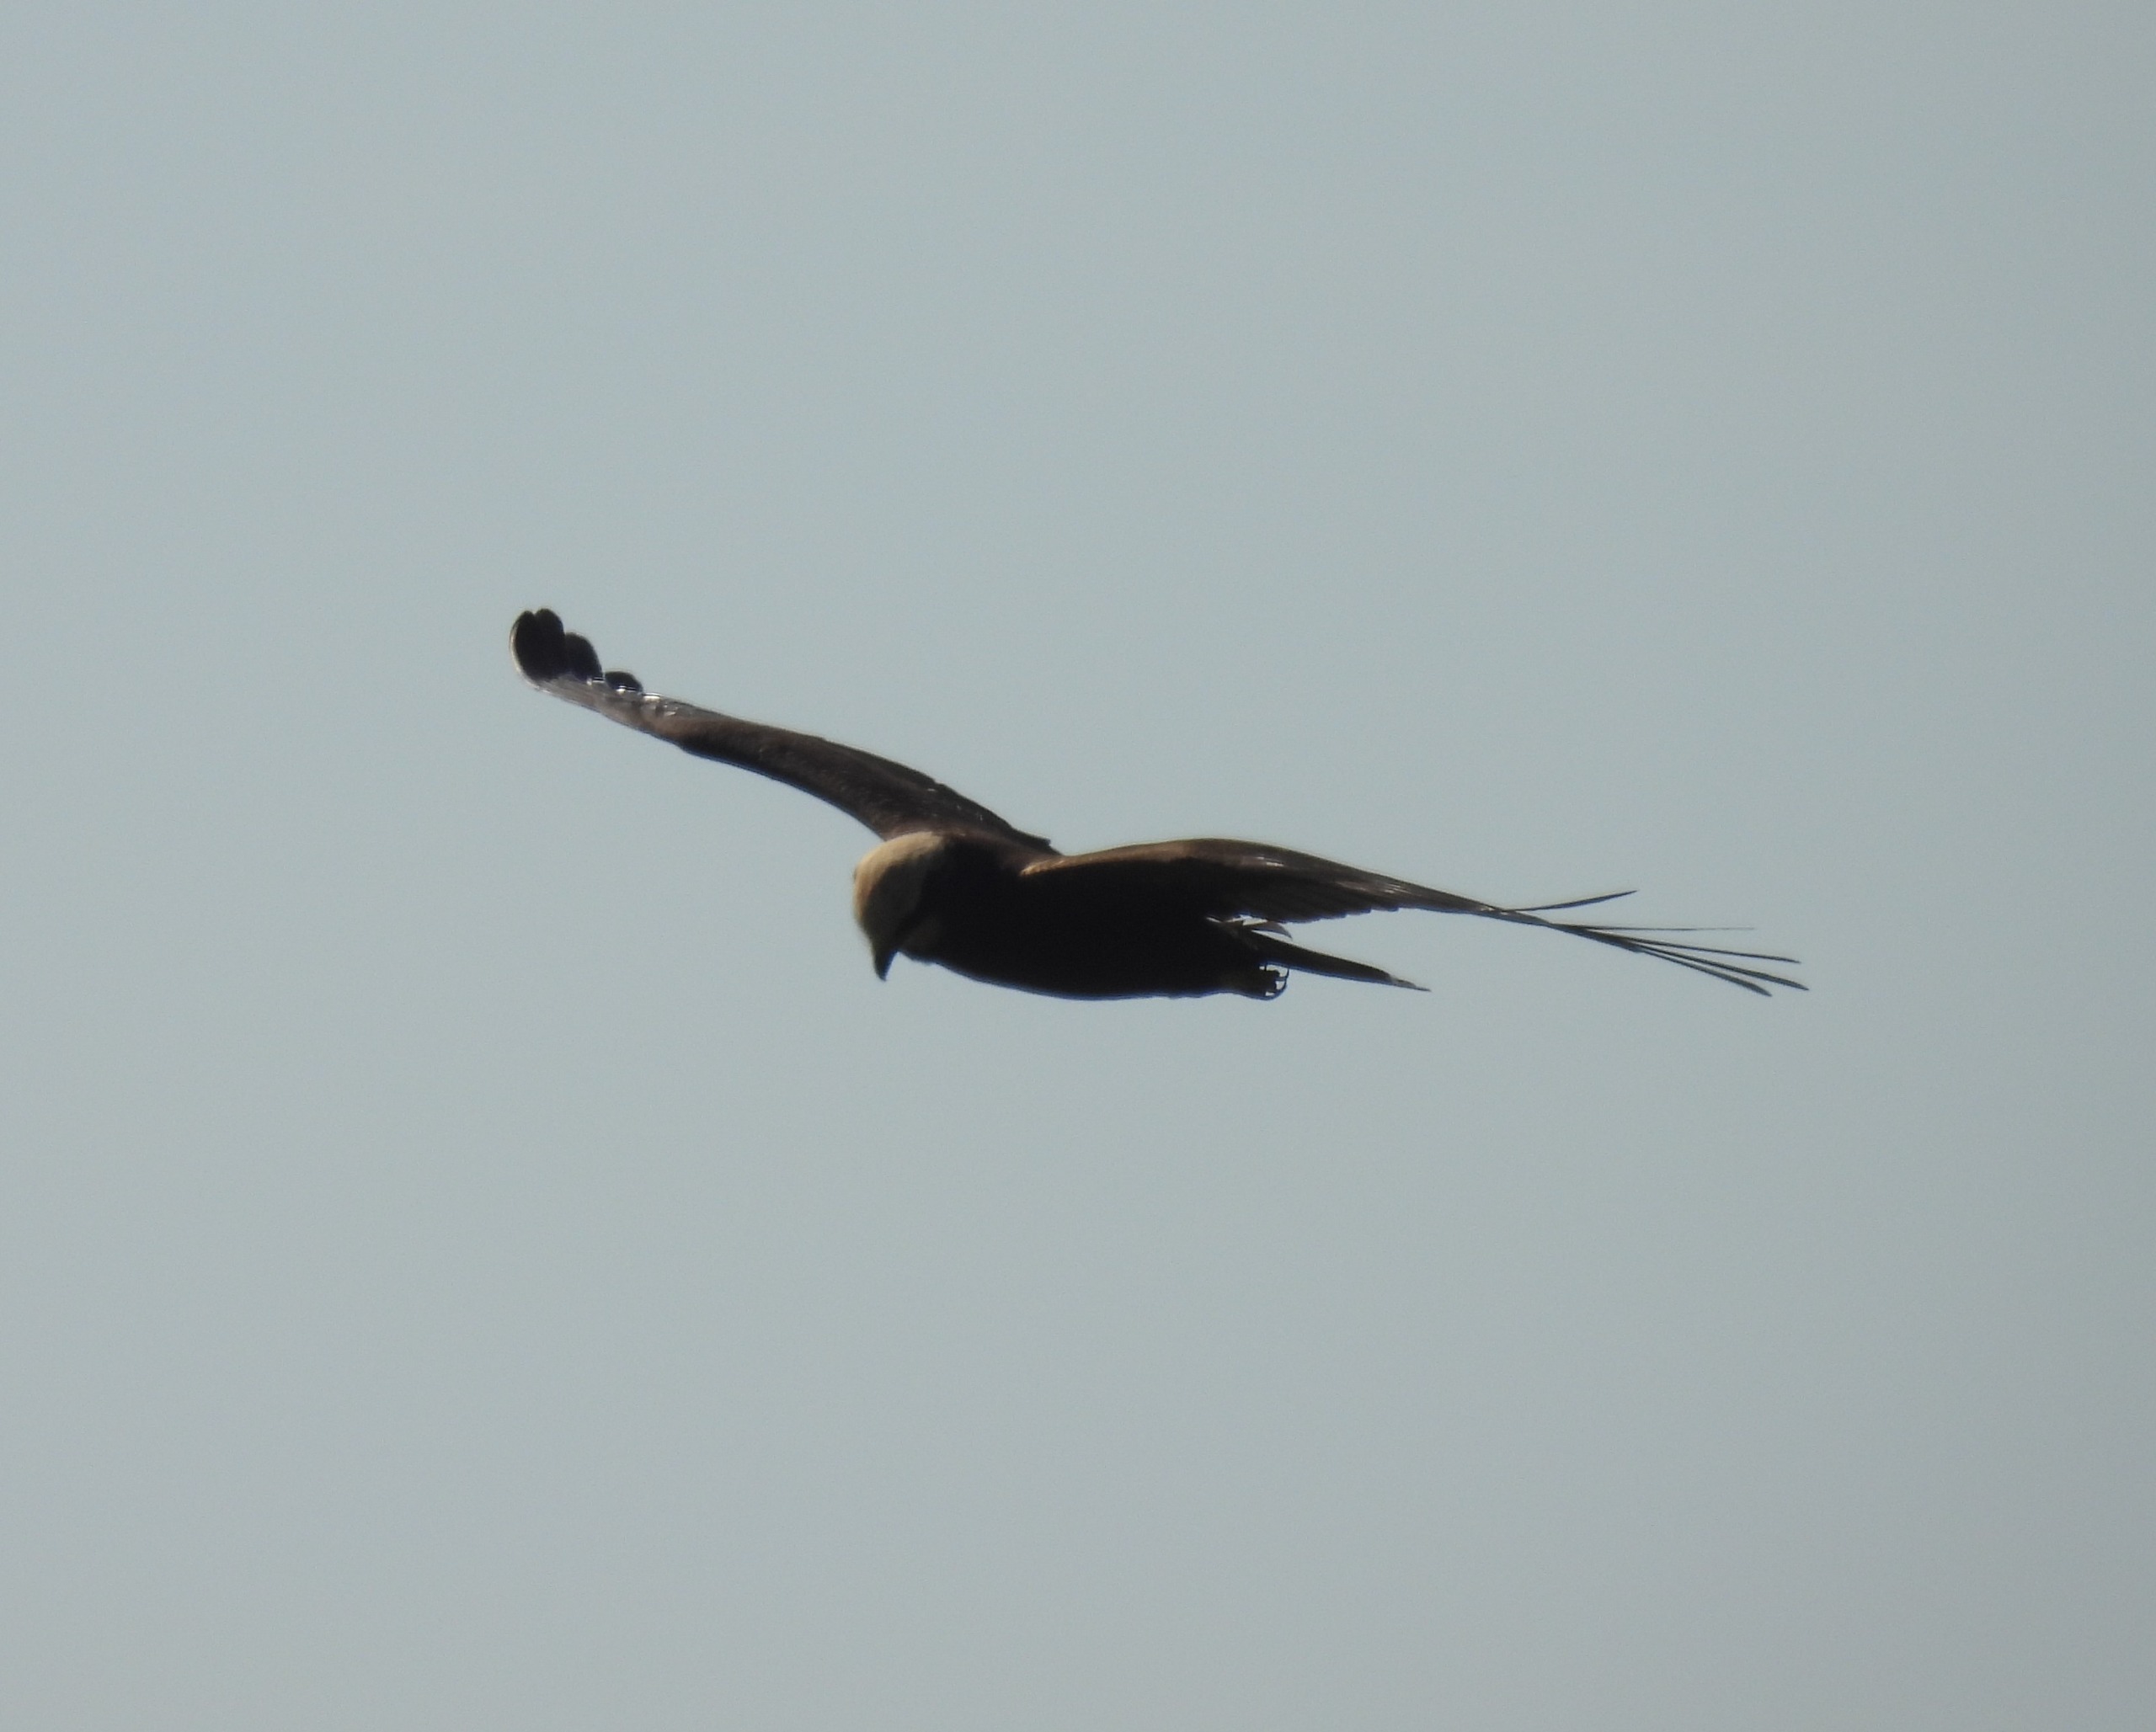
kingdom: Animalia
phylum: Chordata
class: Aves
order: Accipitriformes
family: Accipitridae
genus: Circus
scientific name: Circus aeruginosus
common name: Rørhøg
